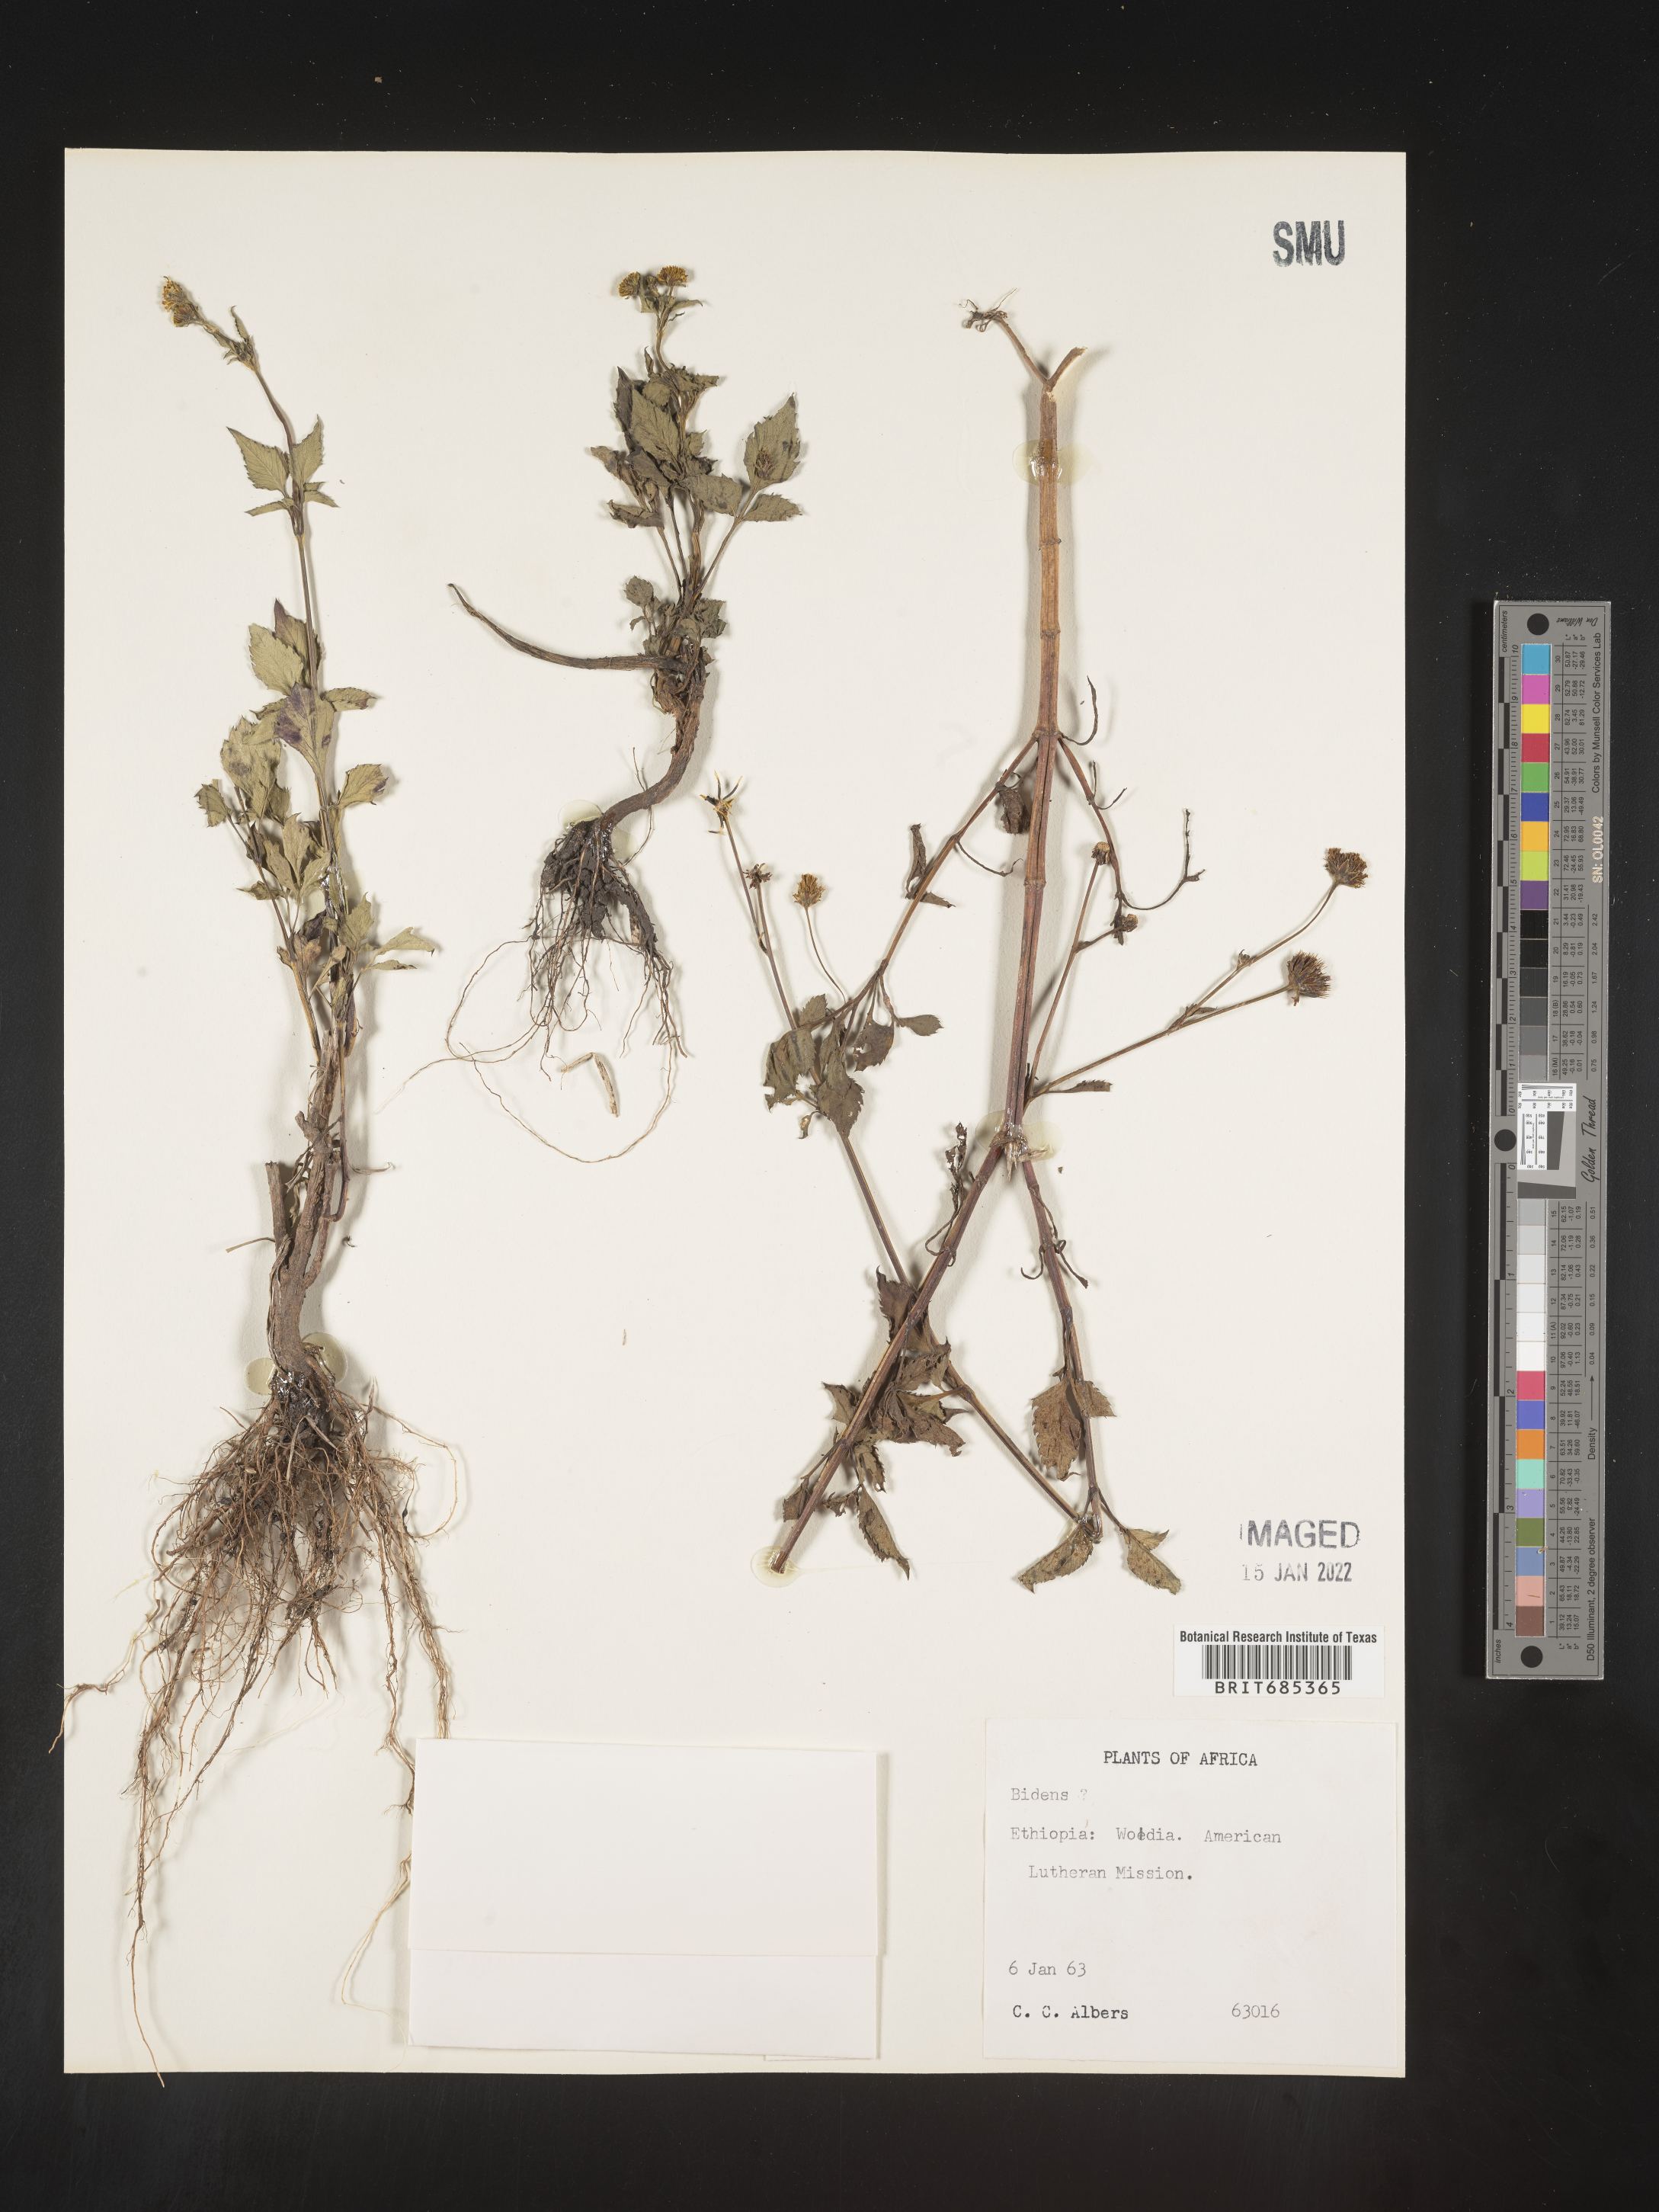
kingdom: Plantae
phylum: Tracheophyta
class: Magnoliopsida
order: Asterales
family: Asteraceae
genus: Bidens
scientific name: Bidens
